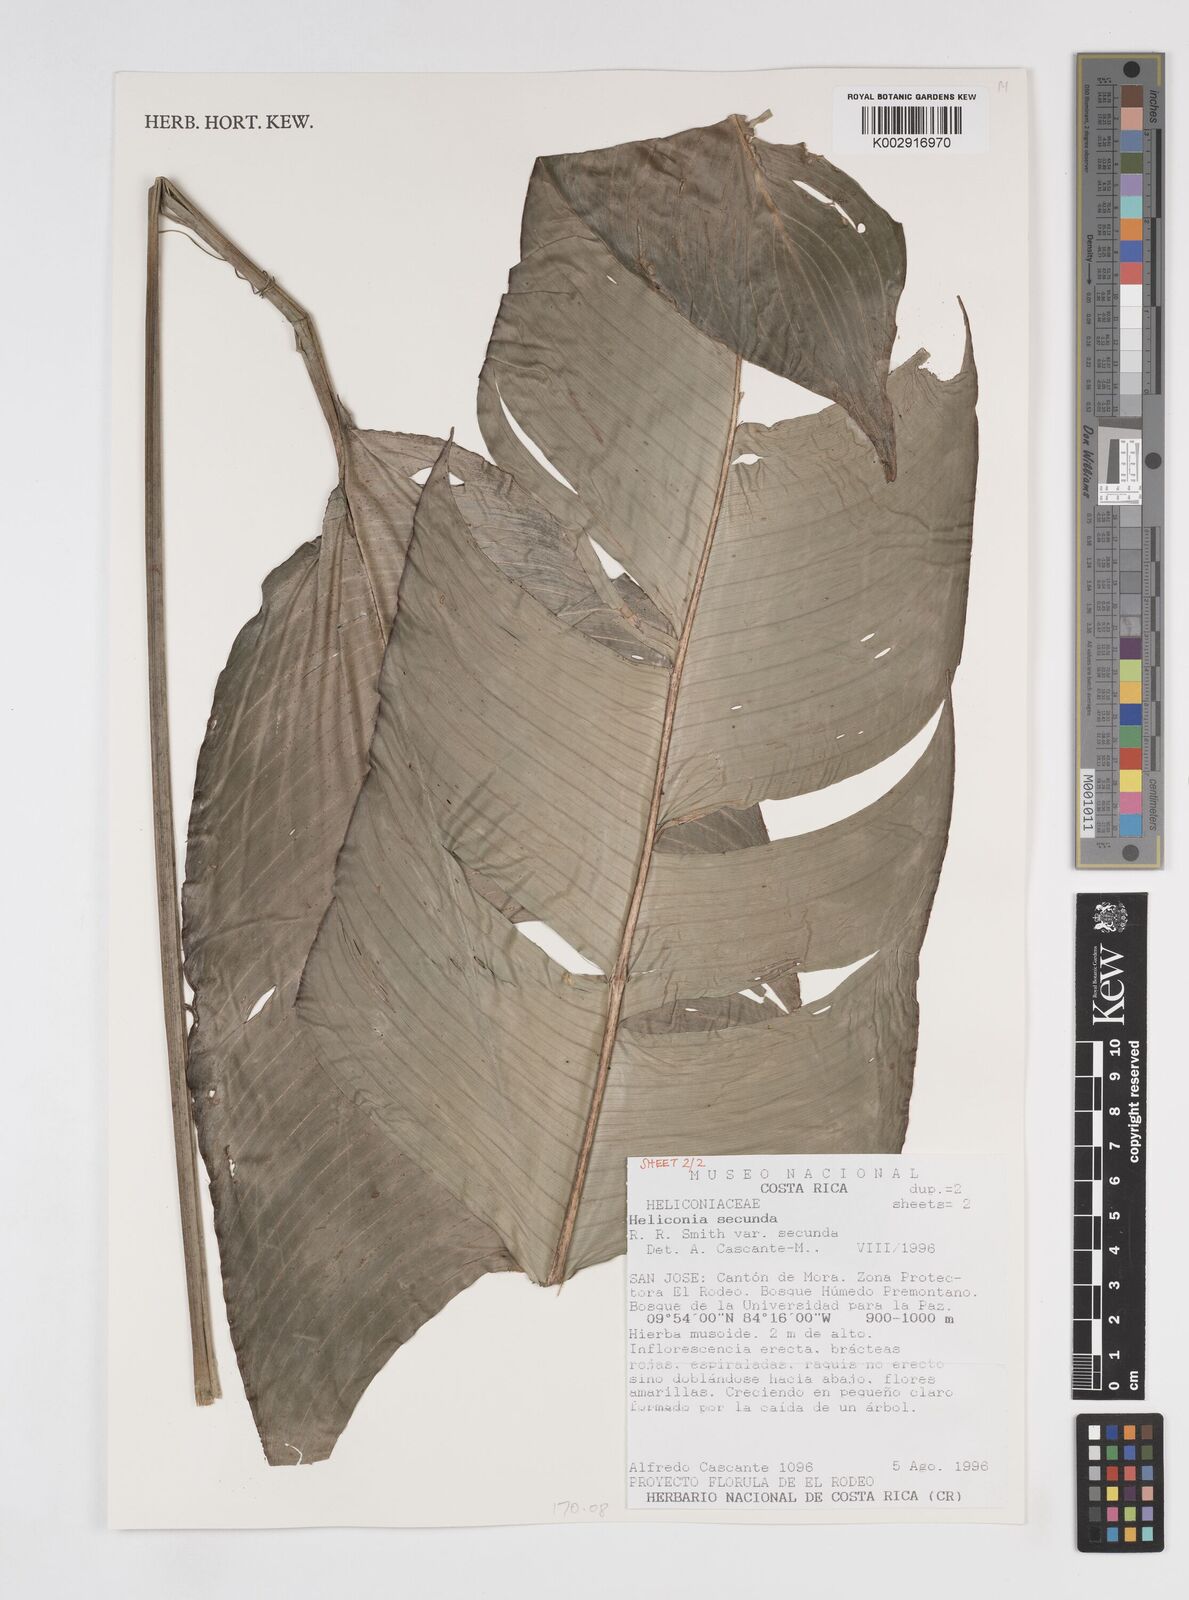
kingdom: Plantae
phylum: Tracheophyta
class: Liliopsida
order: Zingiberales
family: Heliconiaceae
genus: Heliconia
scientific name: Heliconia secunda
